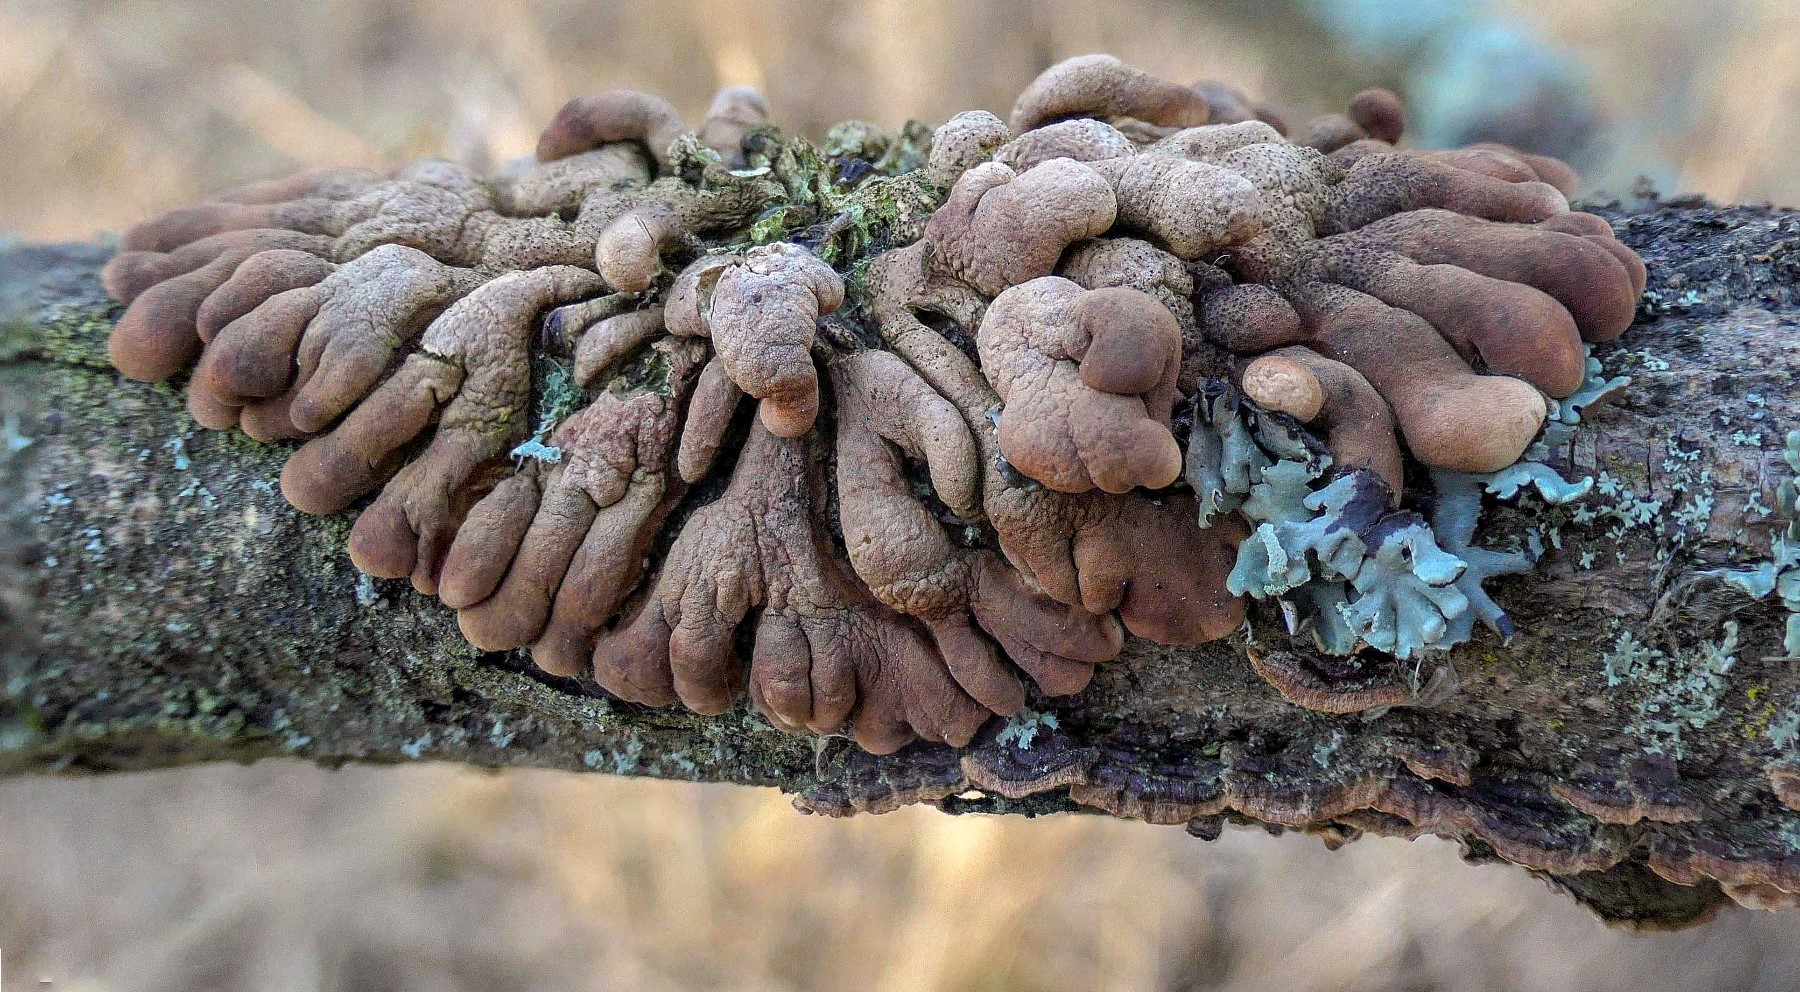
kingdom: Fungi
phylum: Ascomycota
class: Sordariomycetes
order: Hypocreales
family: Hypocreaceae
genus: Hypocreopsis
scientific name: Hypocreopsis lichenoides
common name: pilfinger
